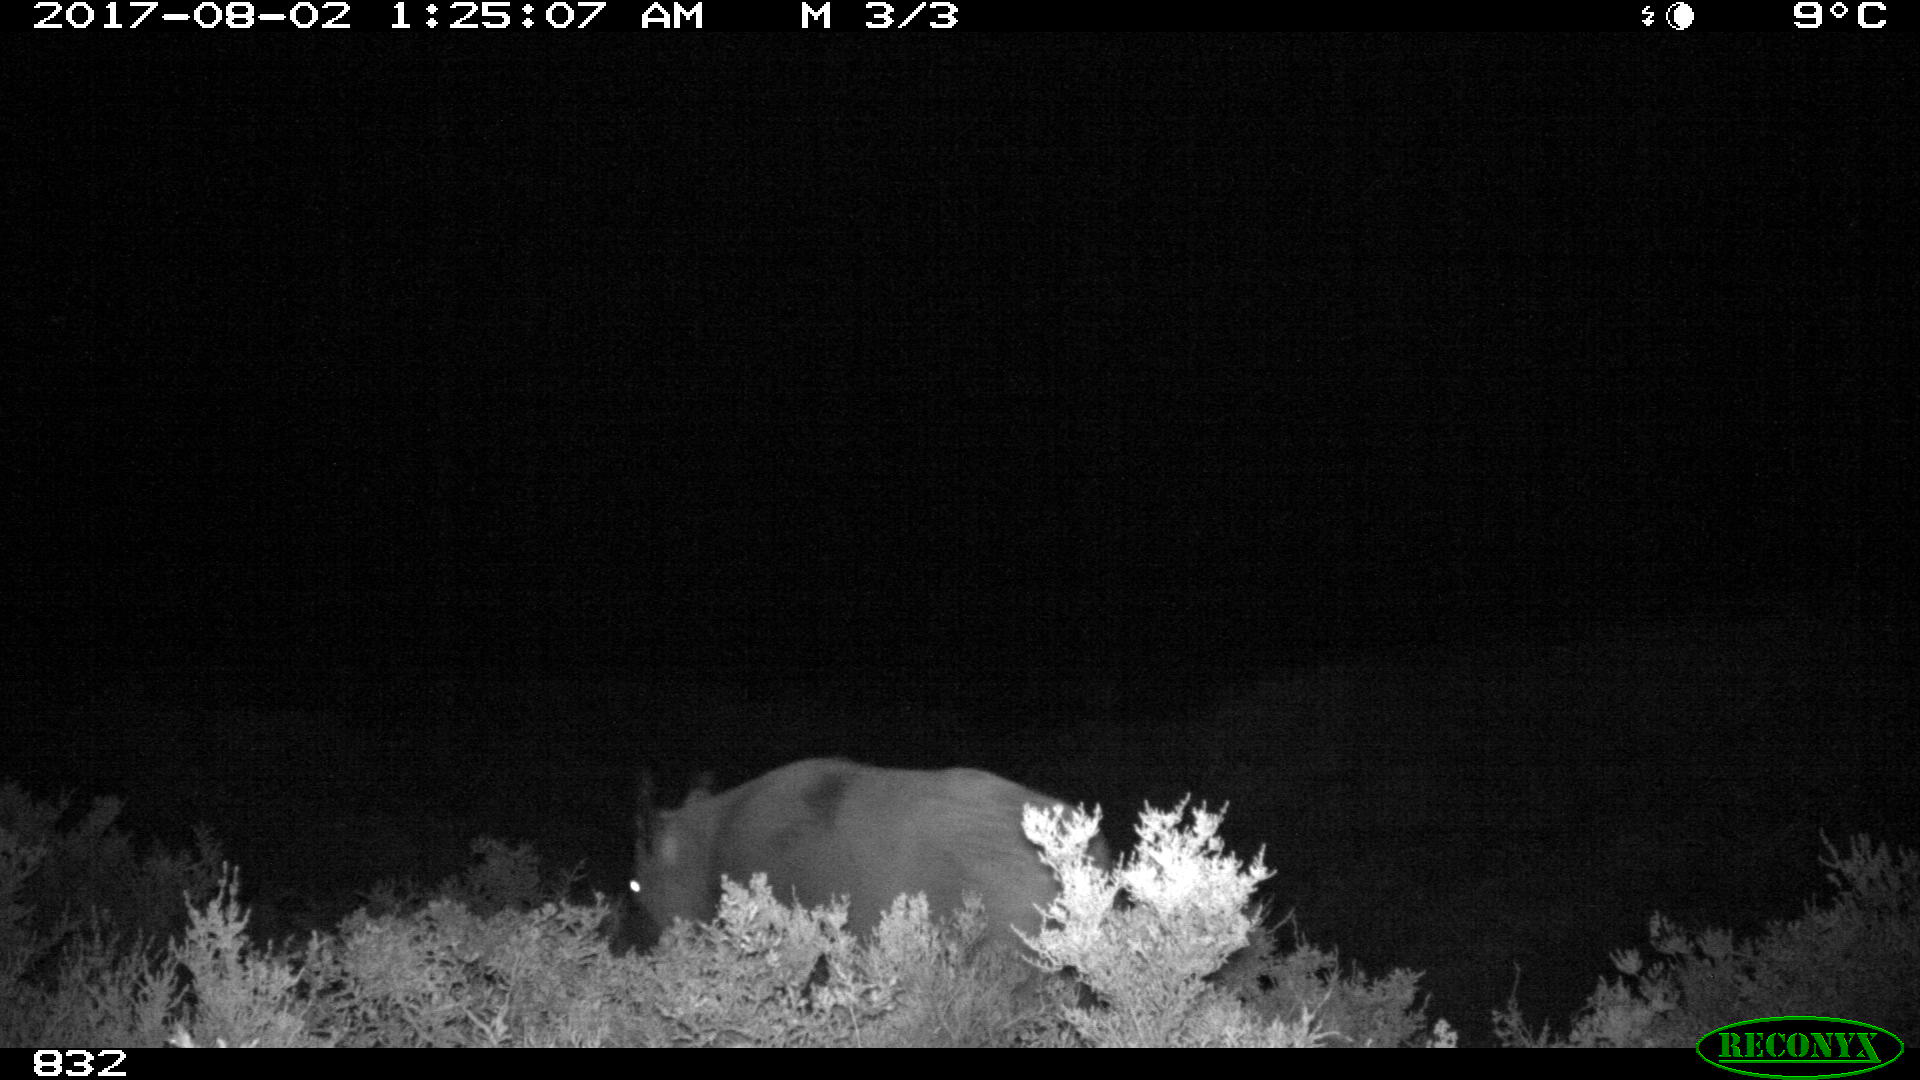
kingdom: Animalia
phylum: Chordata
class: Mammalia
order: Artiodactyla
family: Suidae
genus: Sus
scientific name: Sus scrofa
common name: Wild boar
